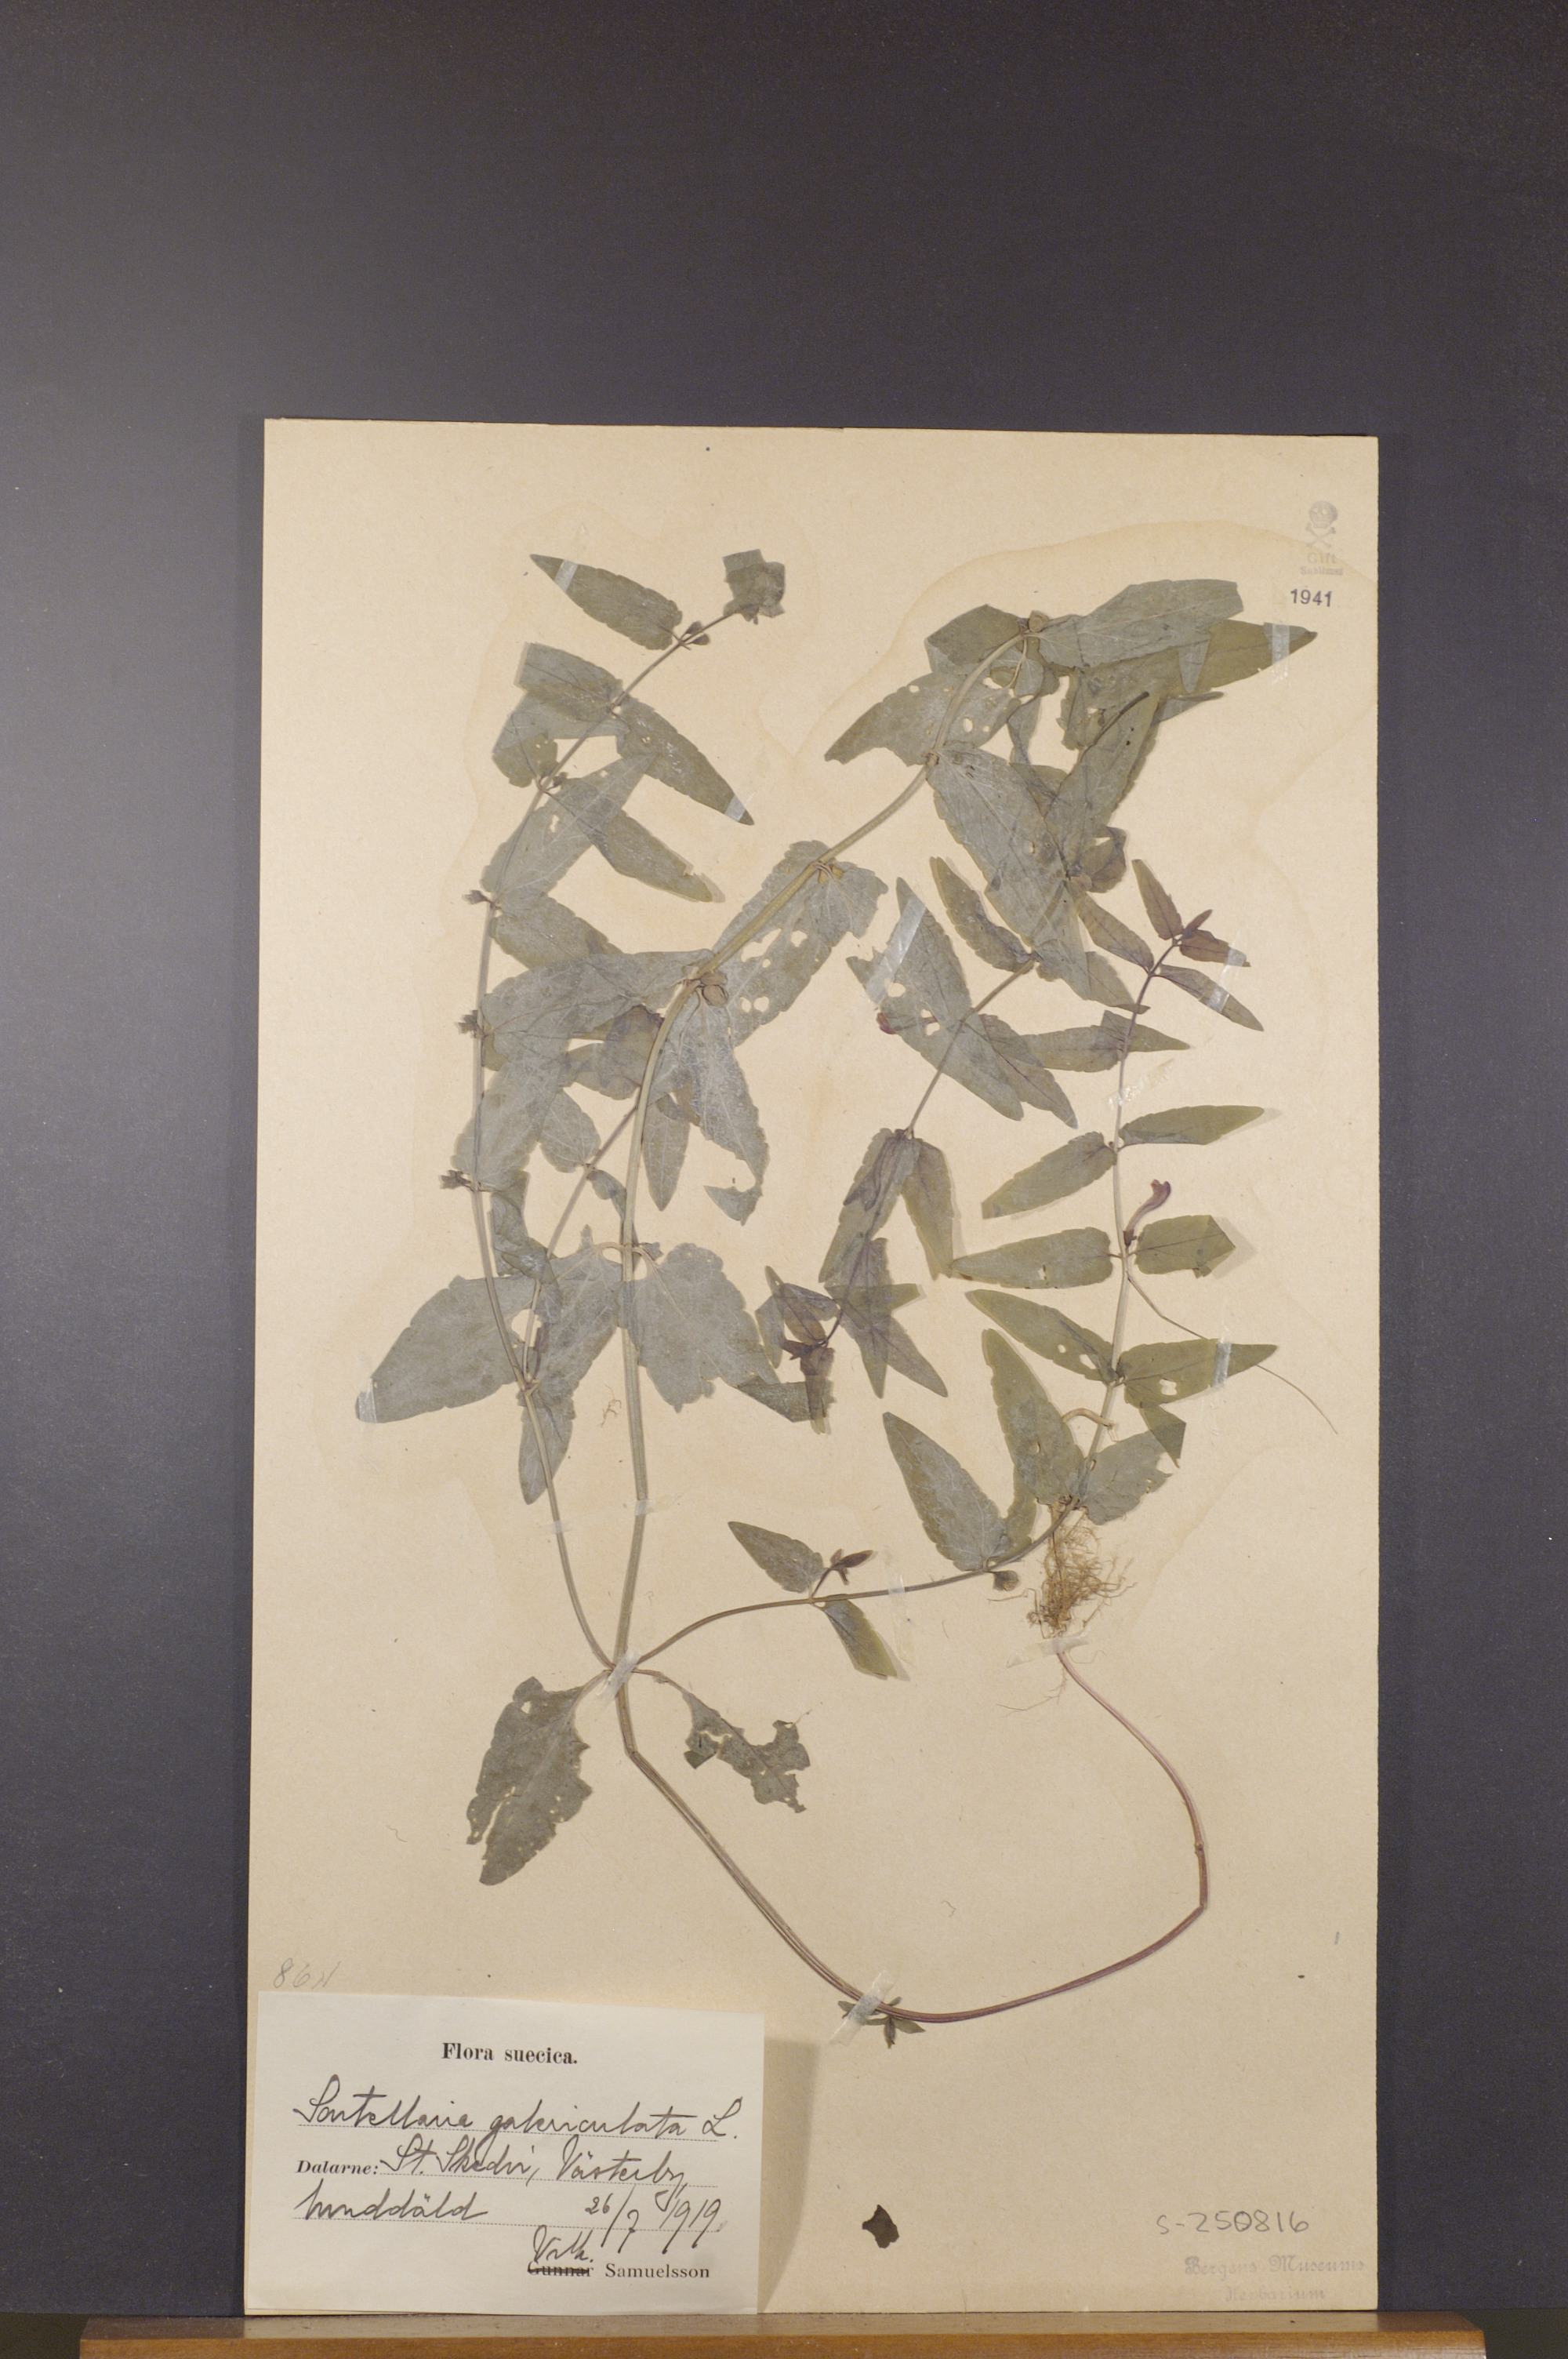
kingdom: Plantae
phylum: Tracheophyta
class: Magnoliopsida
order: Lamiales
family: Lamiaceae
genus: Scutellaria
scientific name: Scutellaria galericulata
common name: Skullcap
